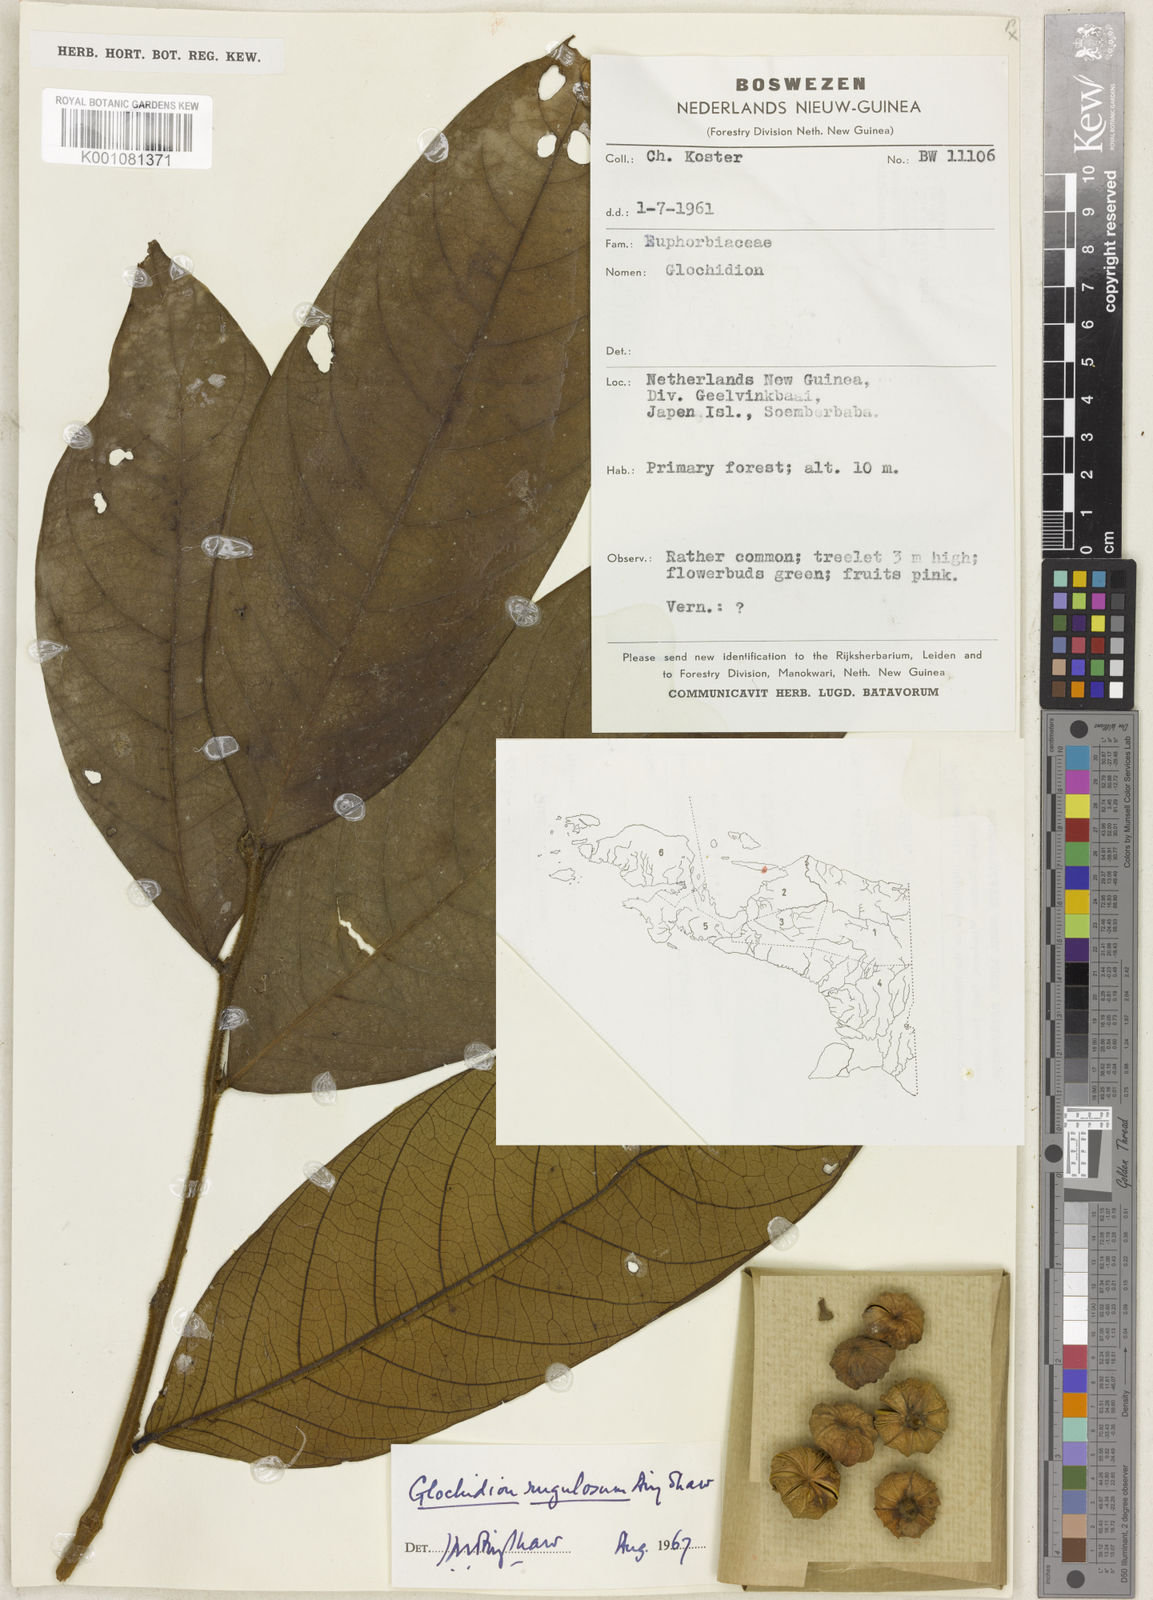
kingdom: Plantae
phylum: Tracheophyta
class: Magnoliopsida
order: Malpighiales
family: Phyllanthaceae
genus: Glochidion
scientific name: Glochidion rugulosum
